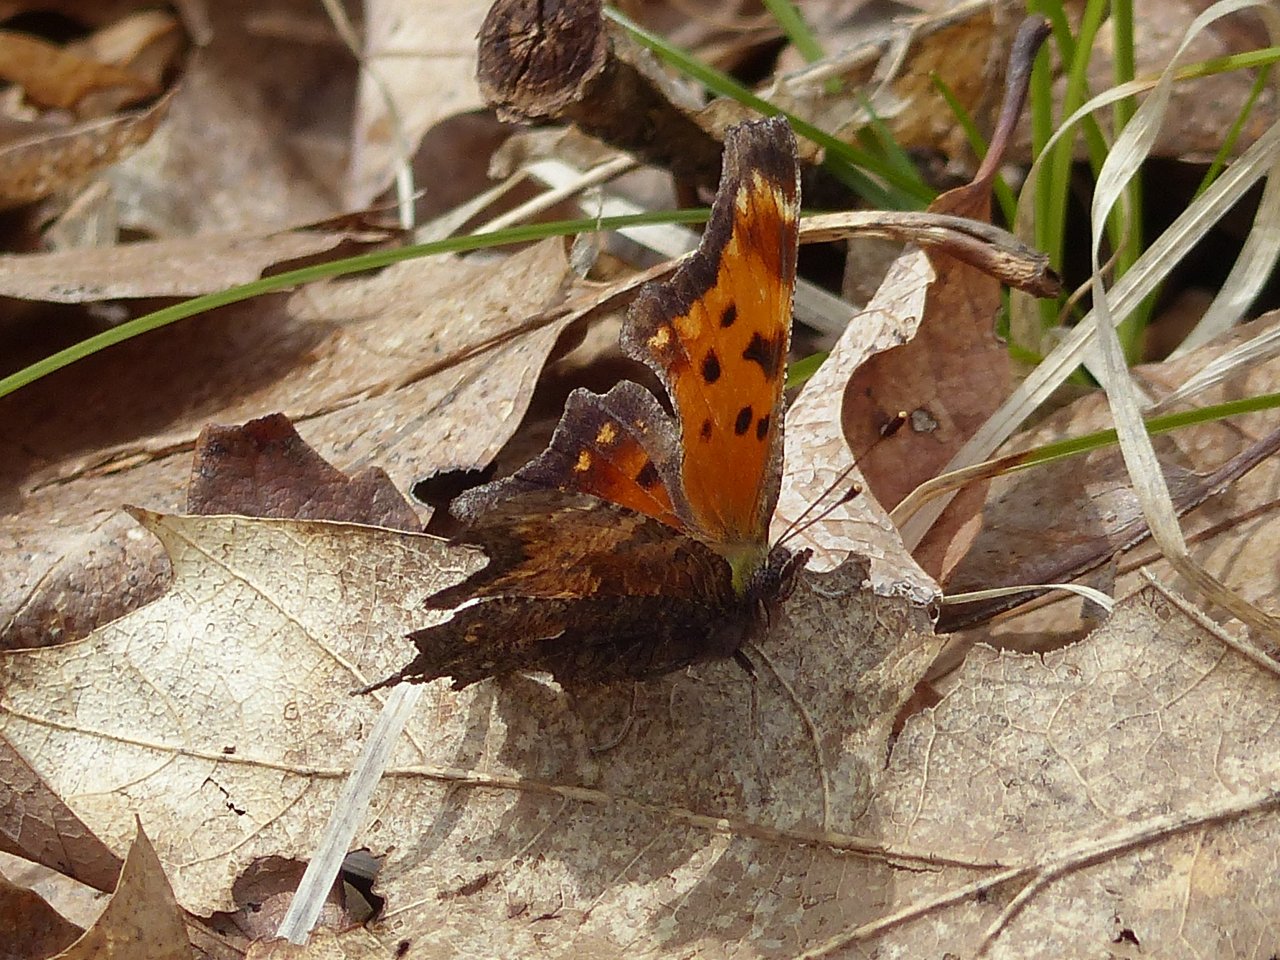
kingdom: Animalia
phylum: Arthropoda
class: Insecta
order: Lepidoptera
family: Nymphalidae
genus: Polygonia
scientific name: Polygonia progne
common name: Gray Comma
